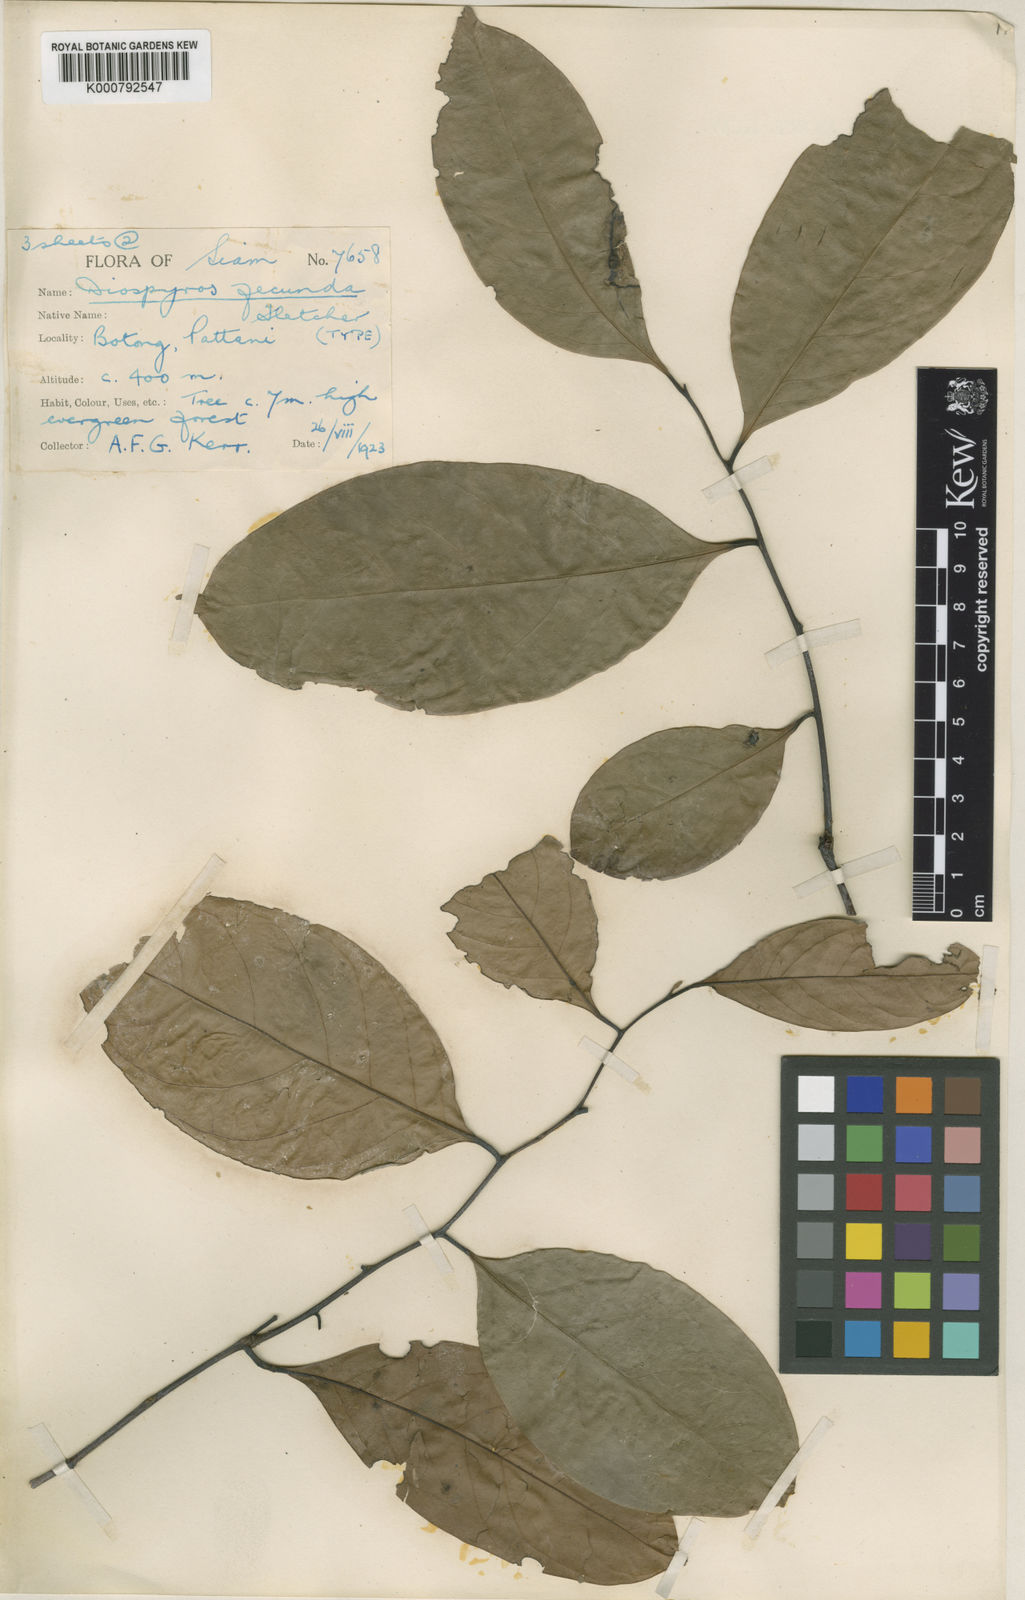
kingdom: Plantae
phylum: Tracheophyta
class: Magnoliopsida
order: Ericales
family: Ebenaceae
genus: Diospyros
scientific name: Diospyros borneensis
